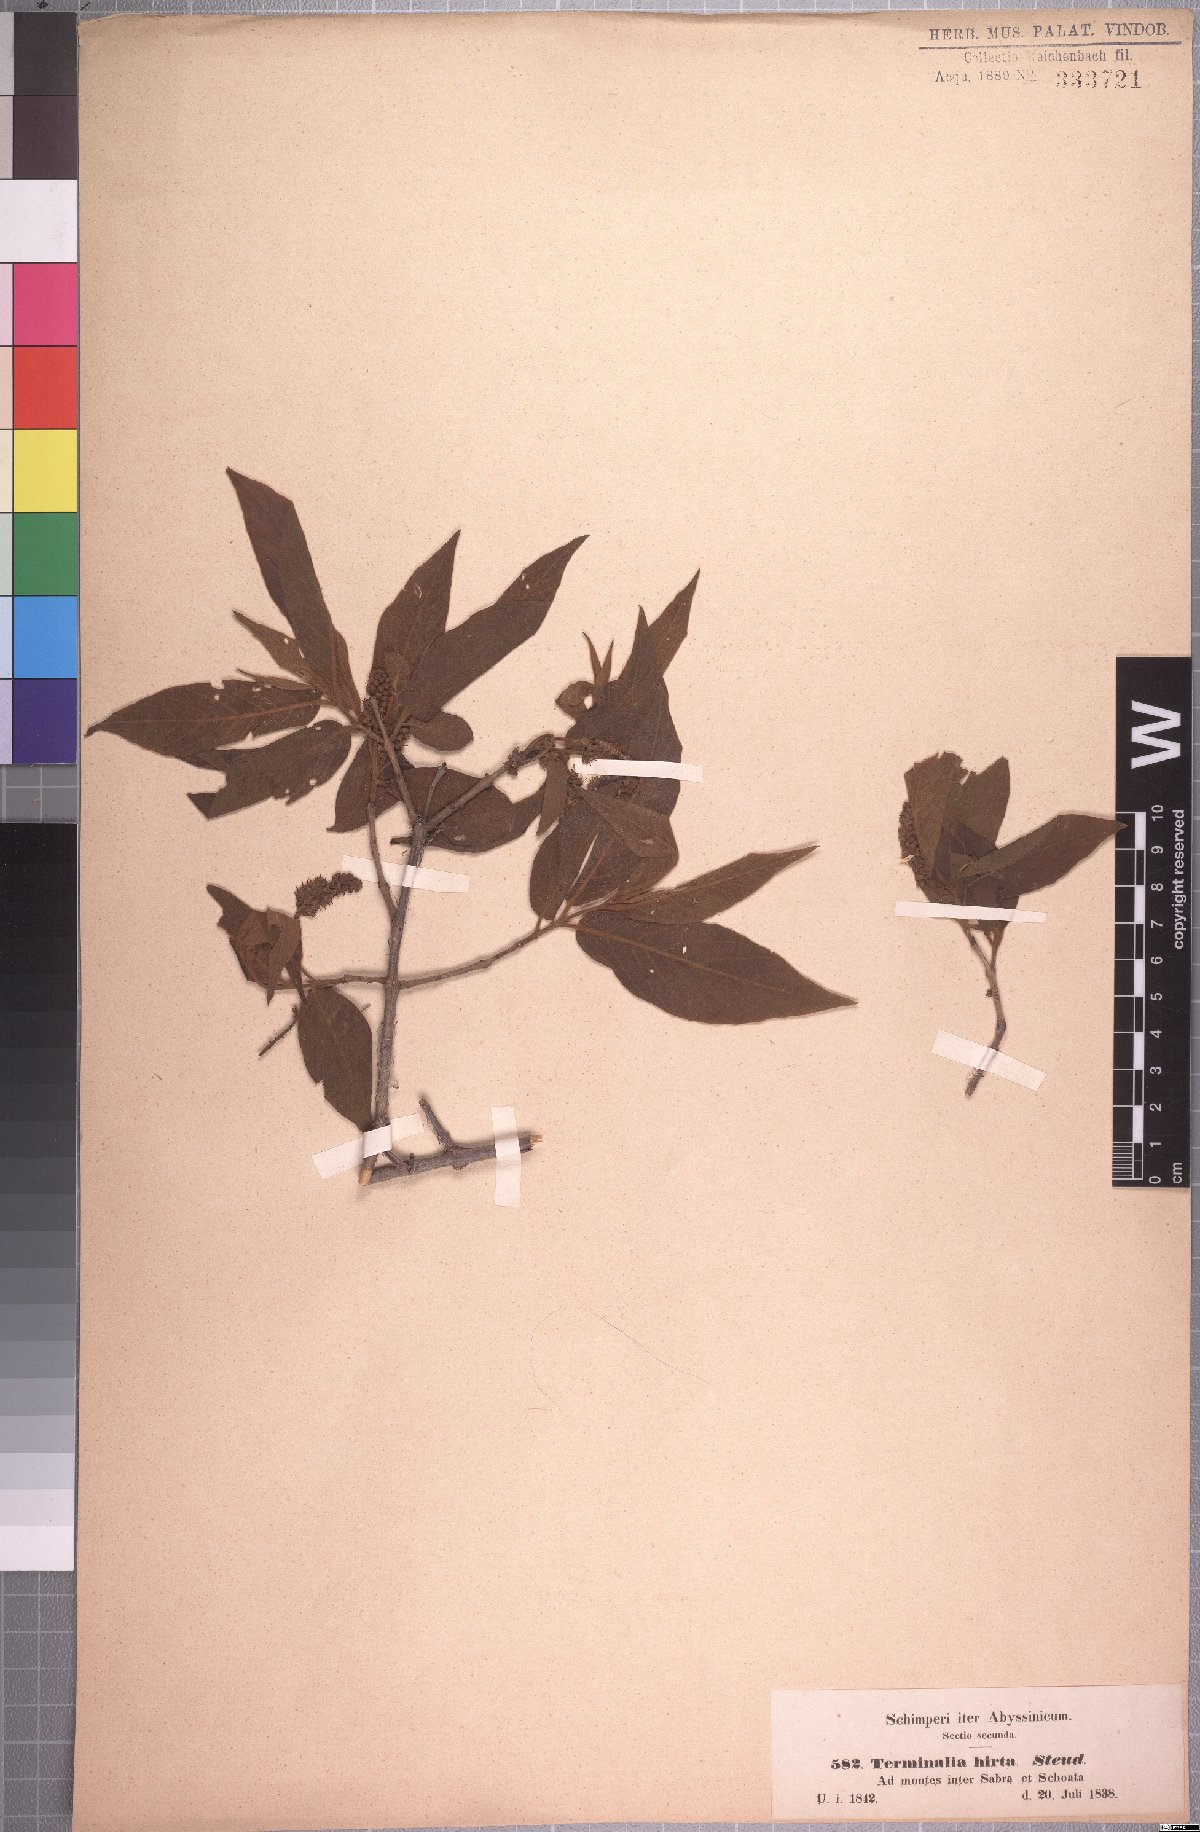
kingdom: Plantae
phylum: Tracheophyta
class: Magnoliopsida
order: Myrtales
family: Combretaceae
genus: Combretum
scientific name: Combretum molle
